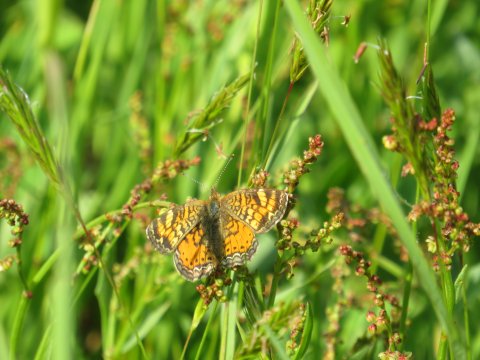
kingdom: Animalia
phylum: Arthropoda
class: Insecta
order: Lepidoptera
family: Nymphalidae
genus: Phyciodes
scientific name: Phyciodes tharos
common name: Northern Crescent
